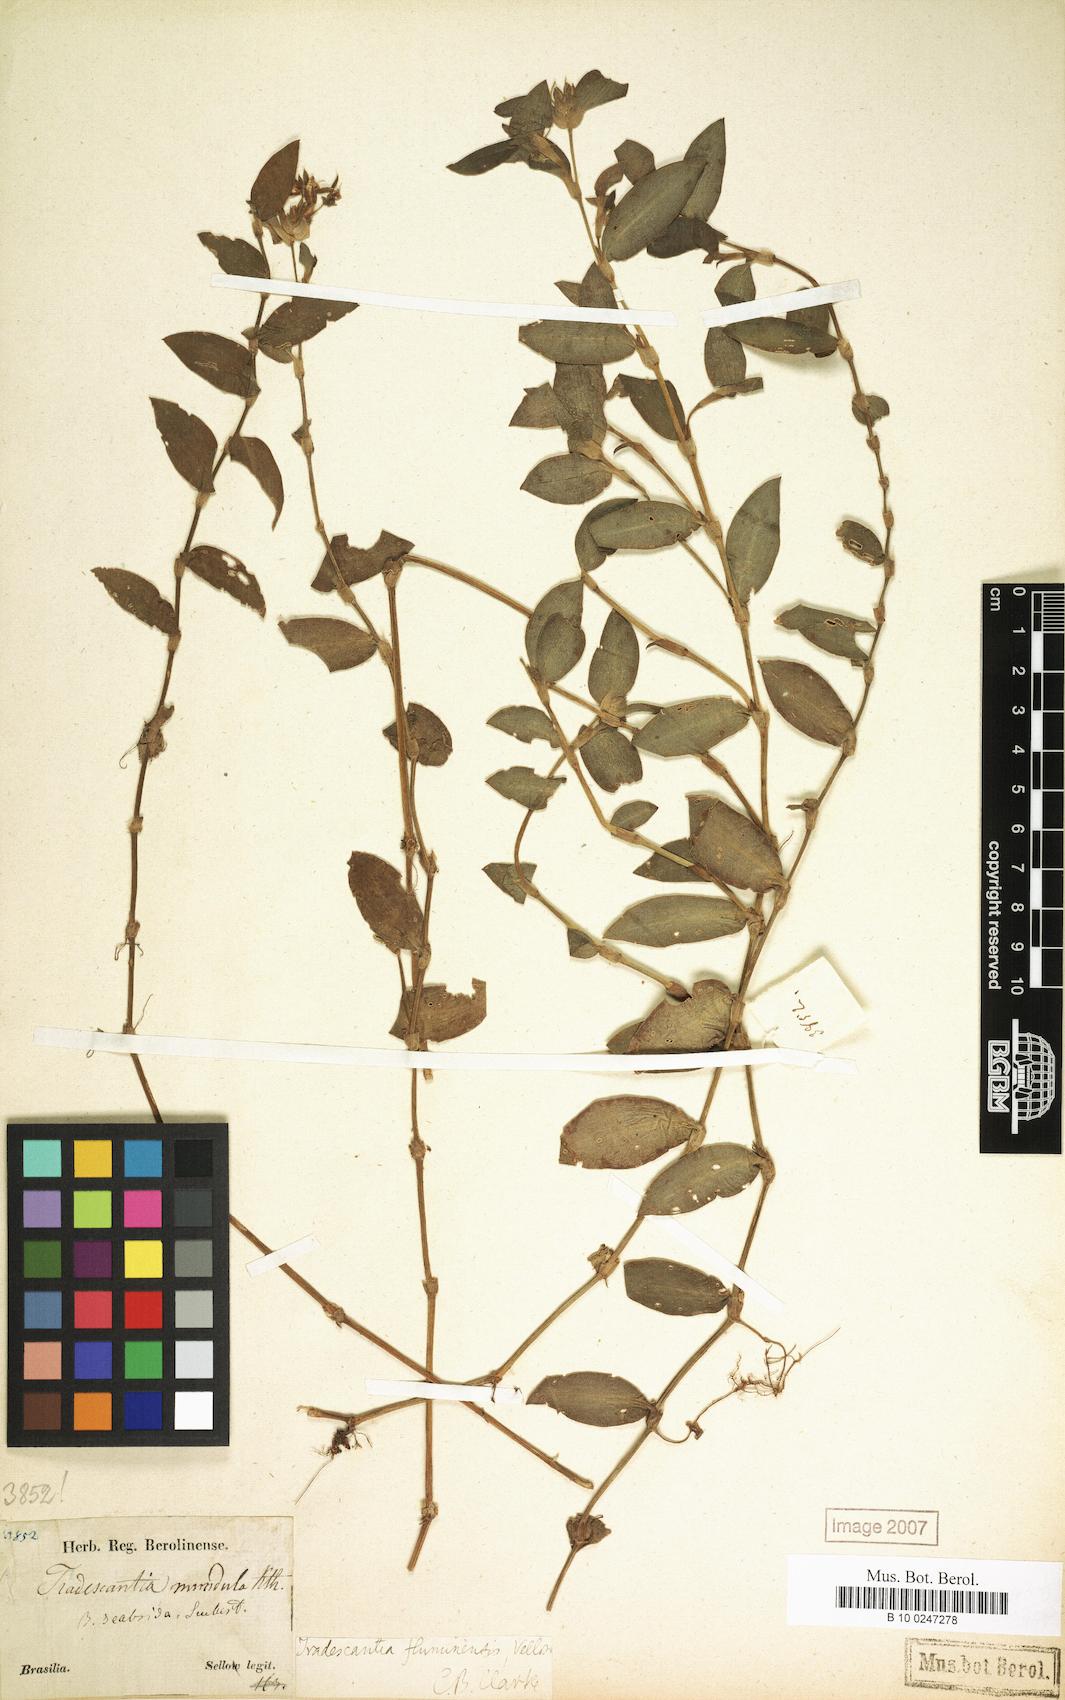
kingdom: Plantae
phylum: Tracheophyta
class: Liliopsida
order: Commelinales
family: Commelinaceae
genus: Tradescantia
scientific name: Tradescantia cymbispatha
